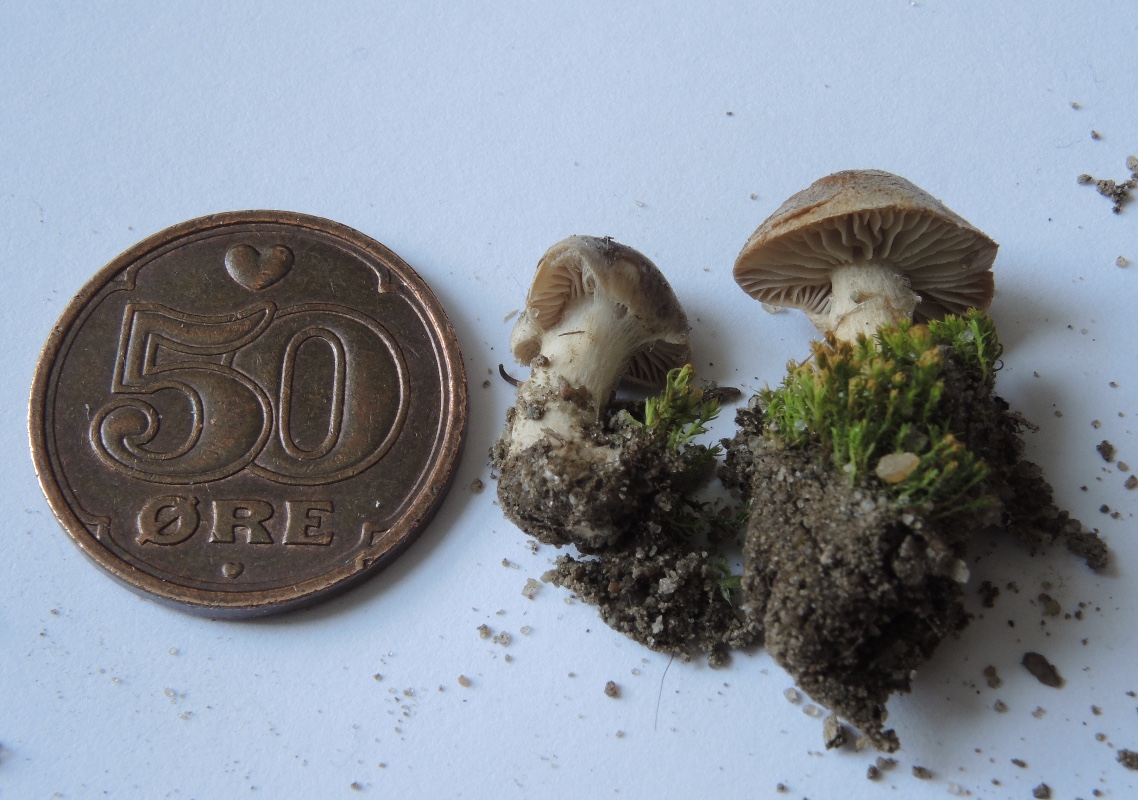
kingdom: Fungi
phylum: Basidiomycota
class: Agaricomycetes
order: Agaricales
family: Tricholomataceae
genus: Tricholoma
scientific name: Tricholoma argyraceum
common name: slør-ridderhat
